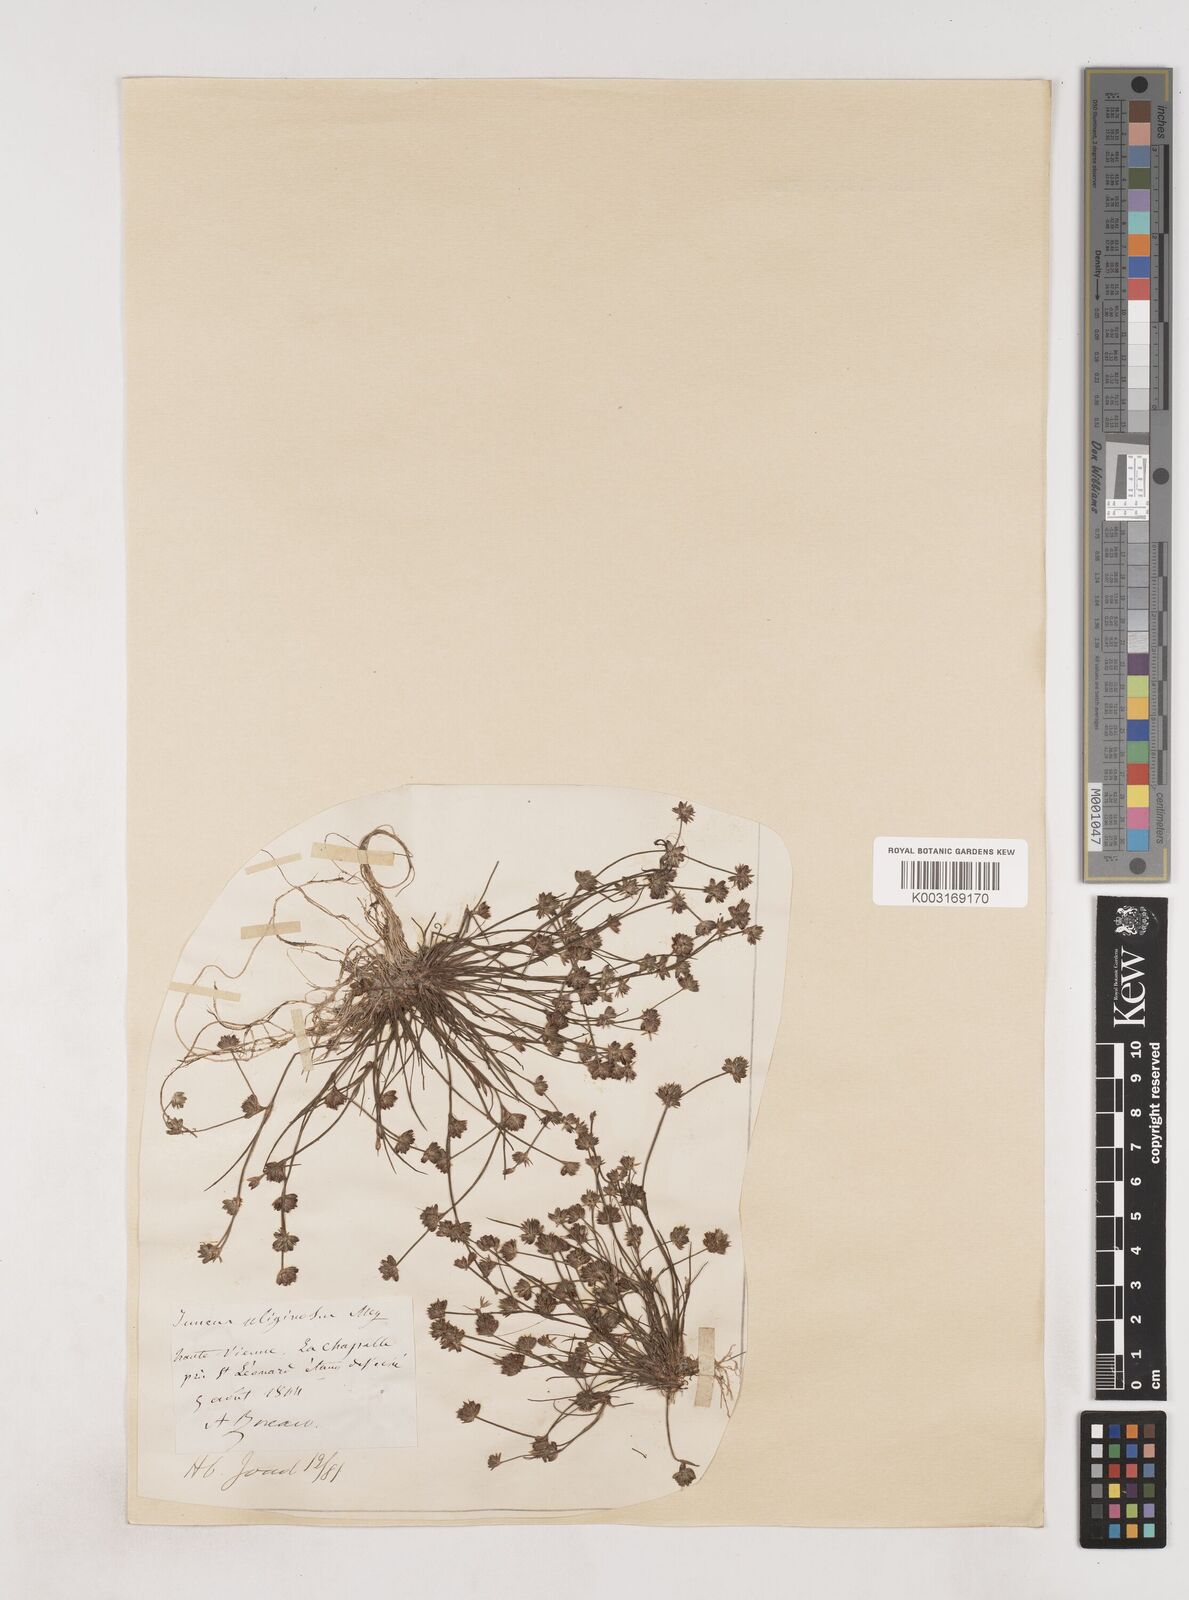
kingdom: Plantae
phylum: Tracheophyta
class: Liliopsida
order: Poales
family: Juncaceae
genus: Juncus
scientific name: Juncus bulbosus
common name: Bulbous rush
